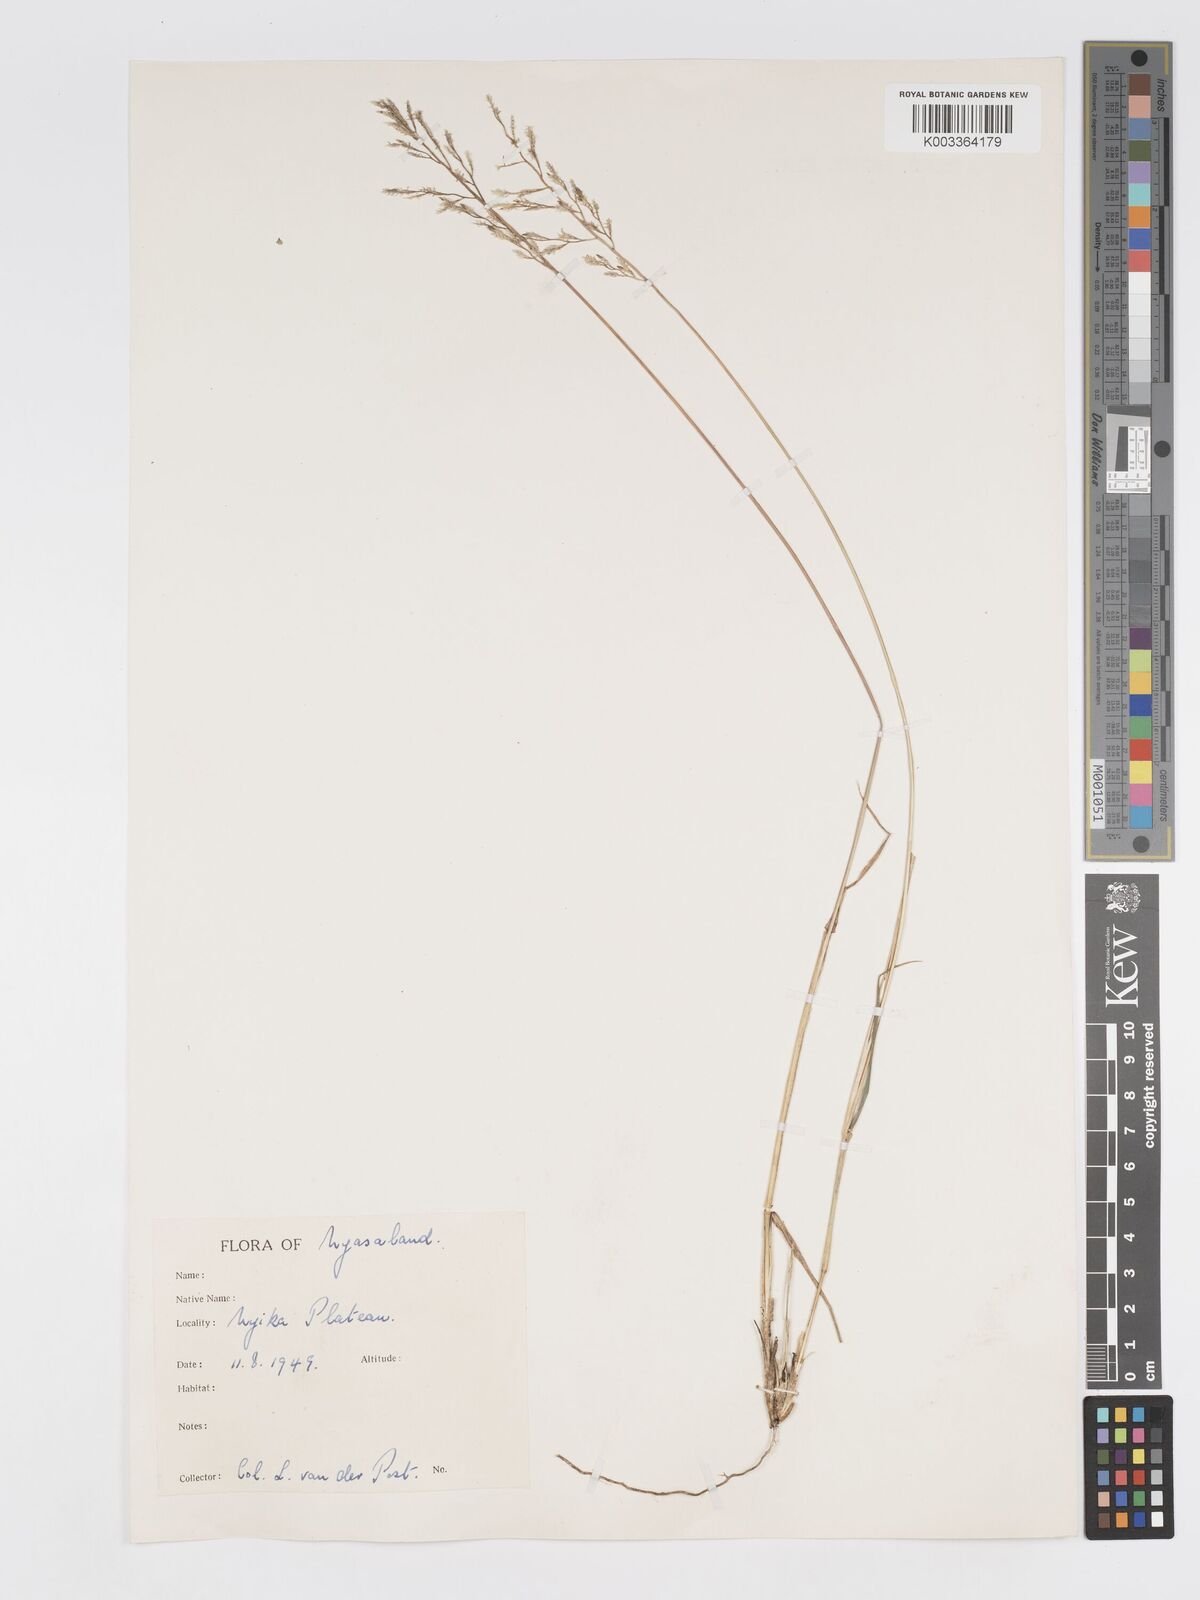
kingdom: Plantae
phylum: Tracheophyta
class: Liliopsida
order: Poales
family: Poaceae
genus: Eragrostis
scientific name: Eragrostis racemosa
